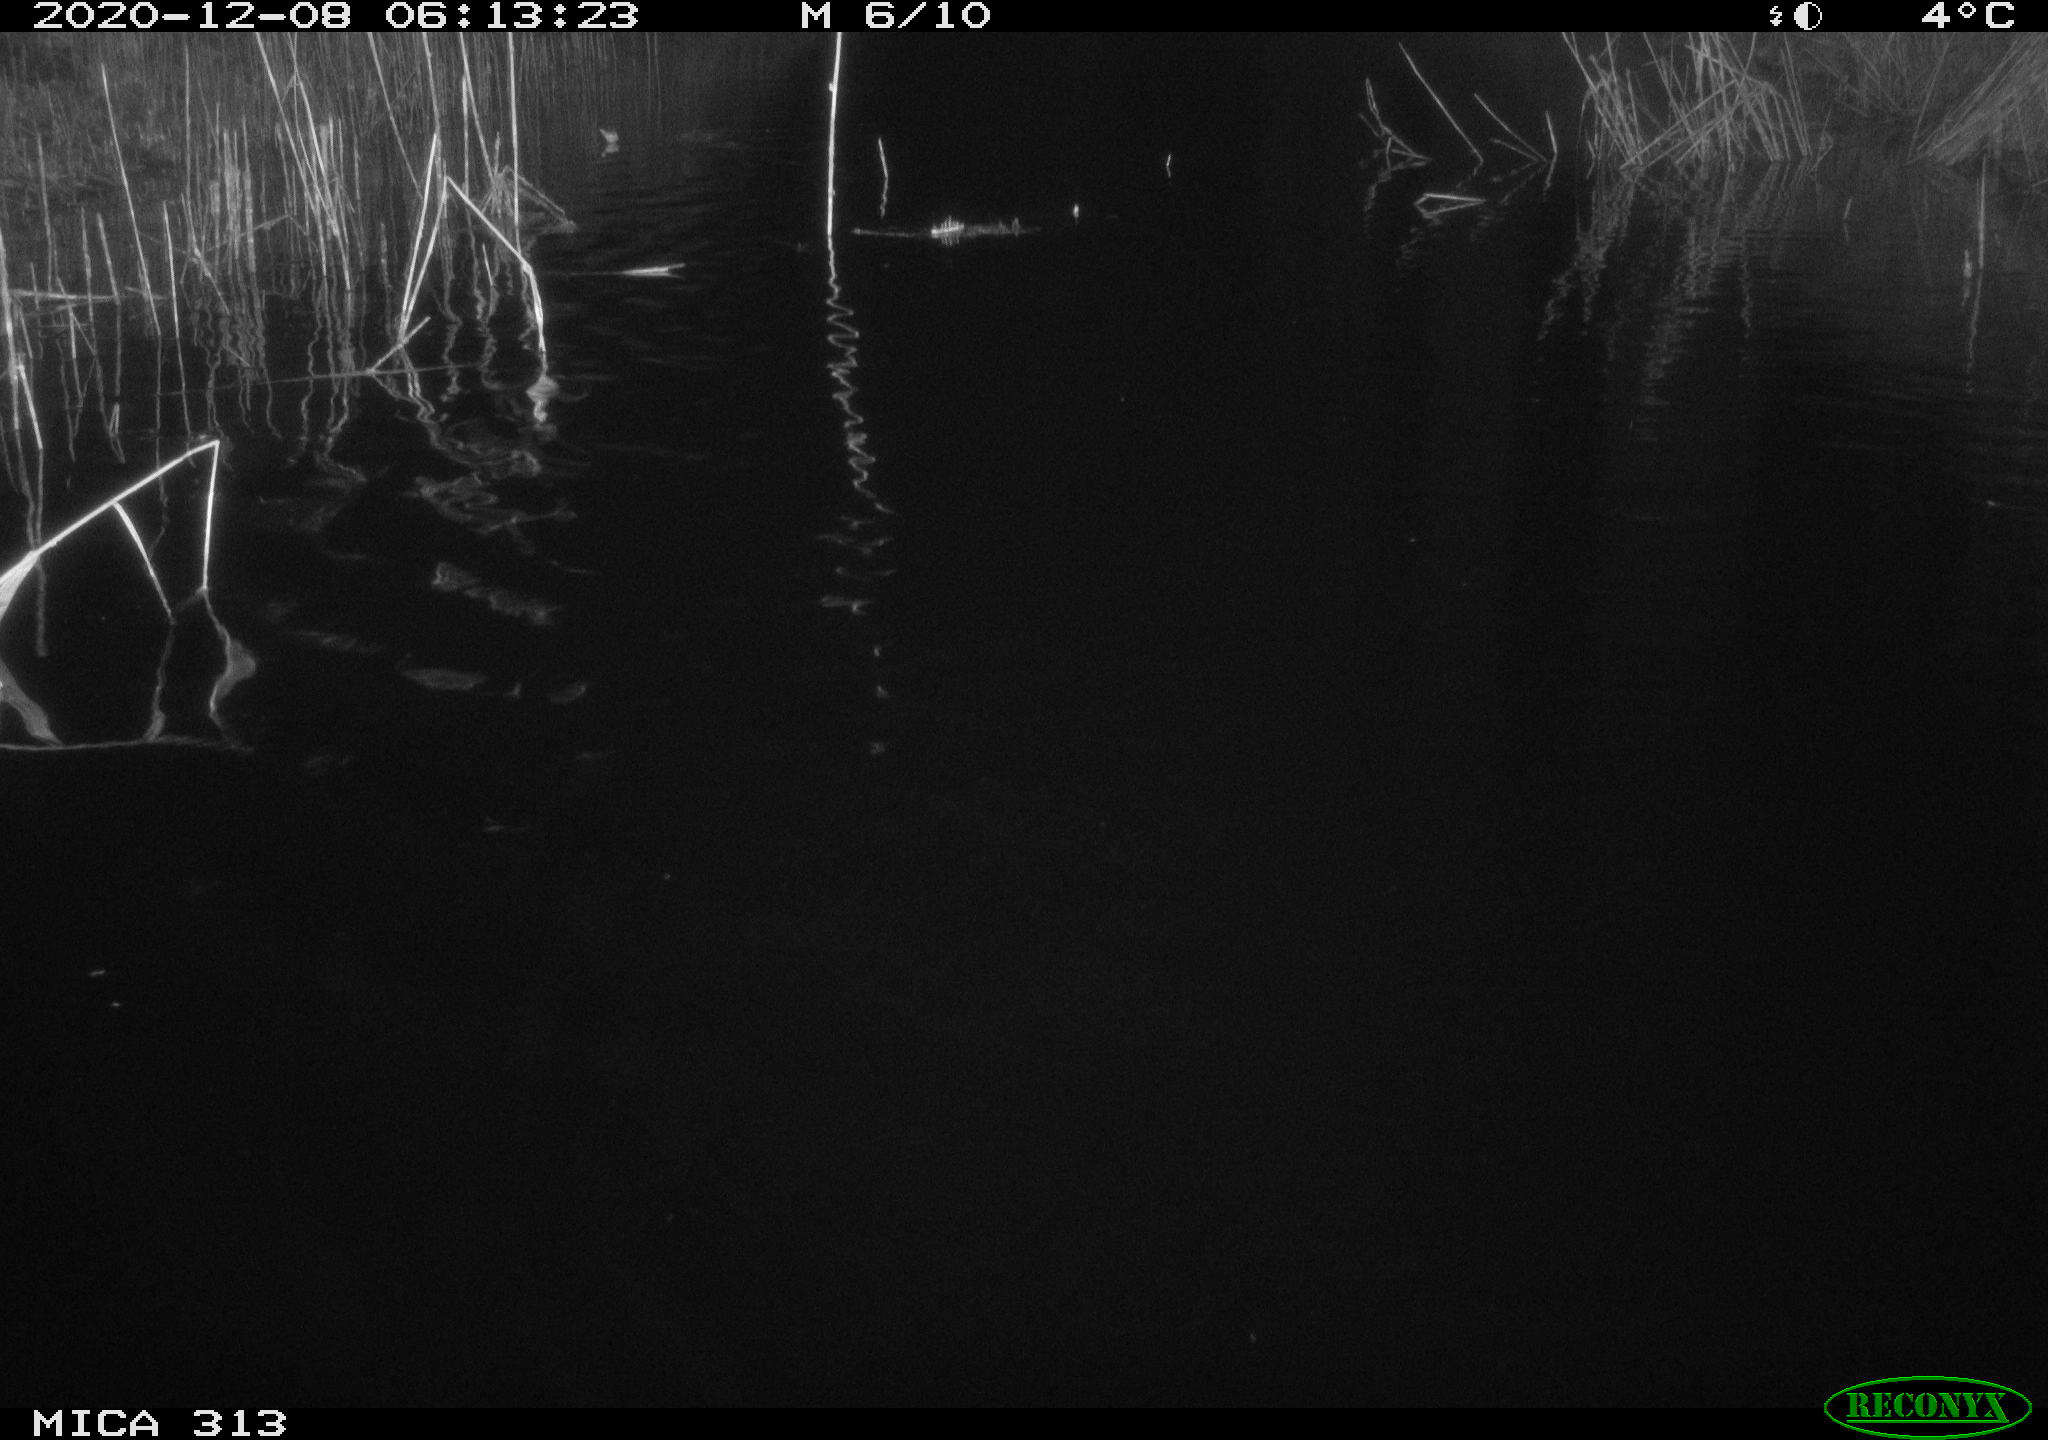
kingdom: Animalia
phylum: Chordata
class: Mammalia
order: Rodentia
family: Cricetidae
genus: Ondatra
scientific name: Ondatra zibethicus
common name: Muskrat
